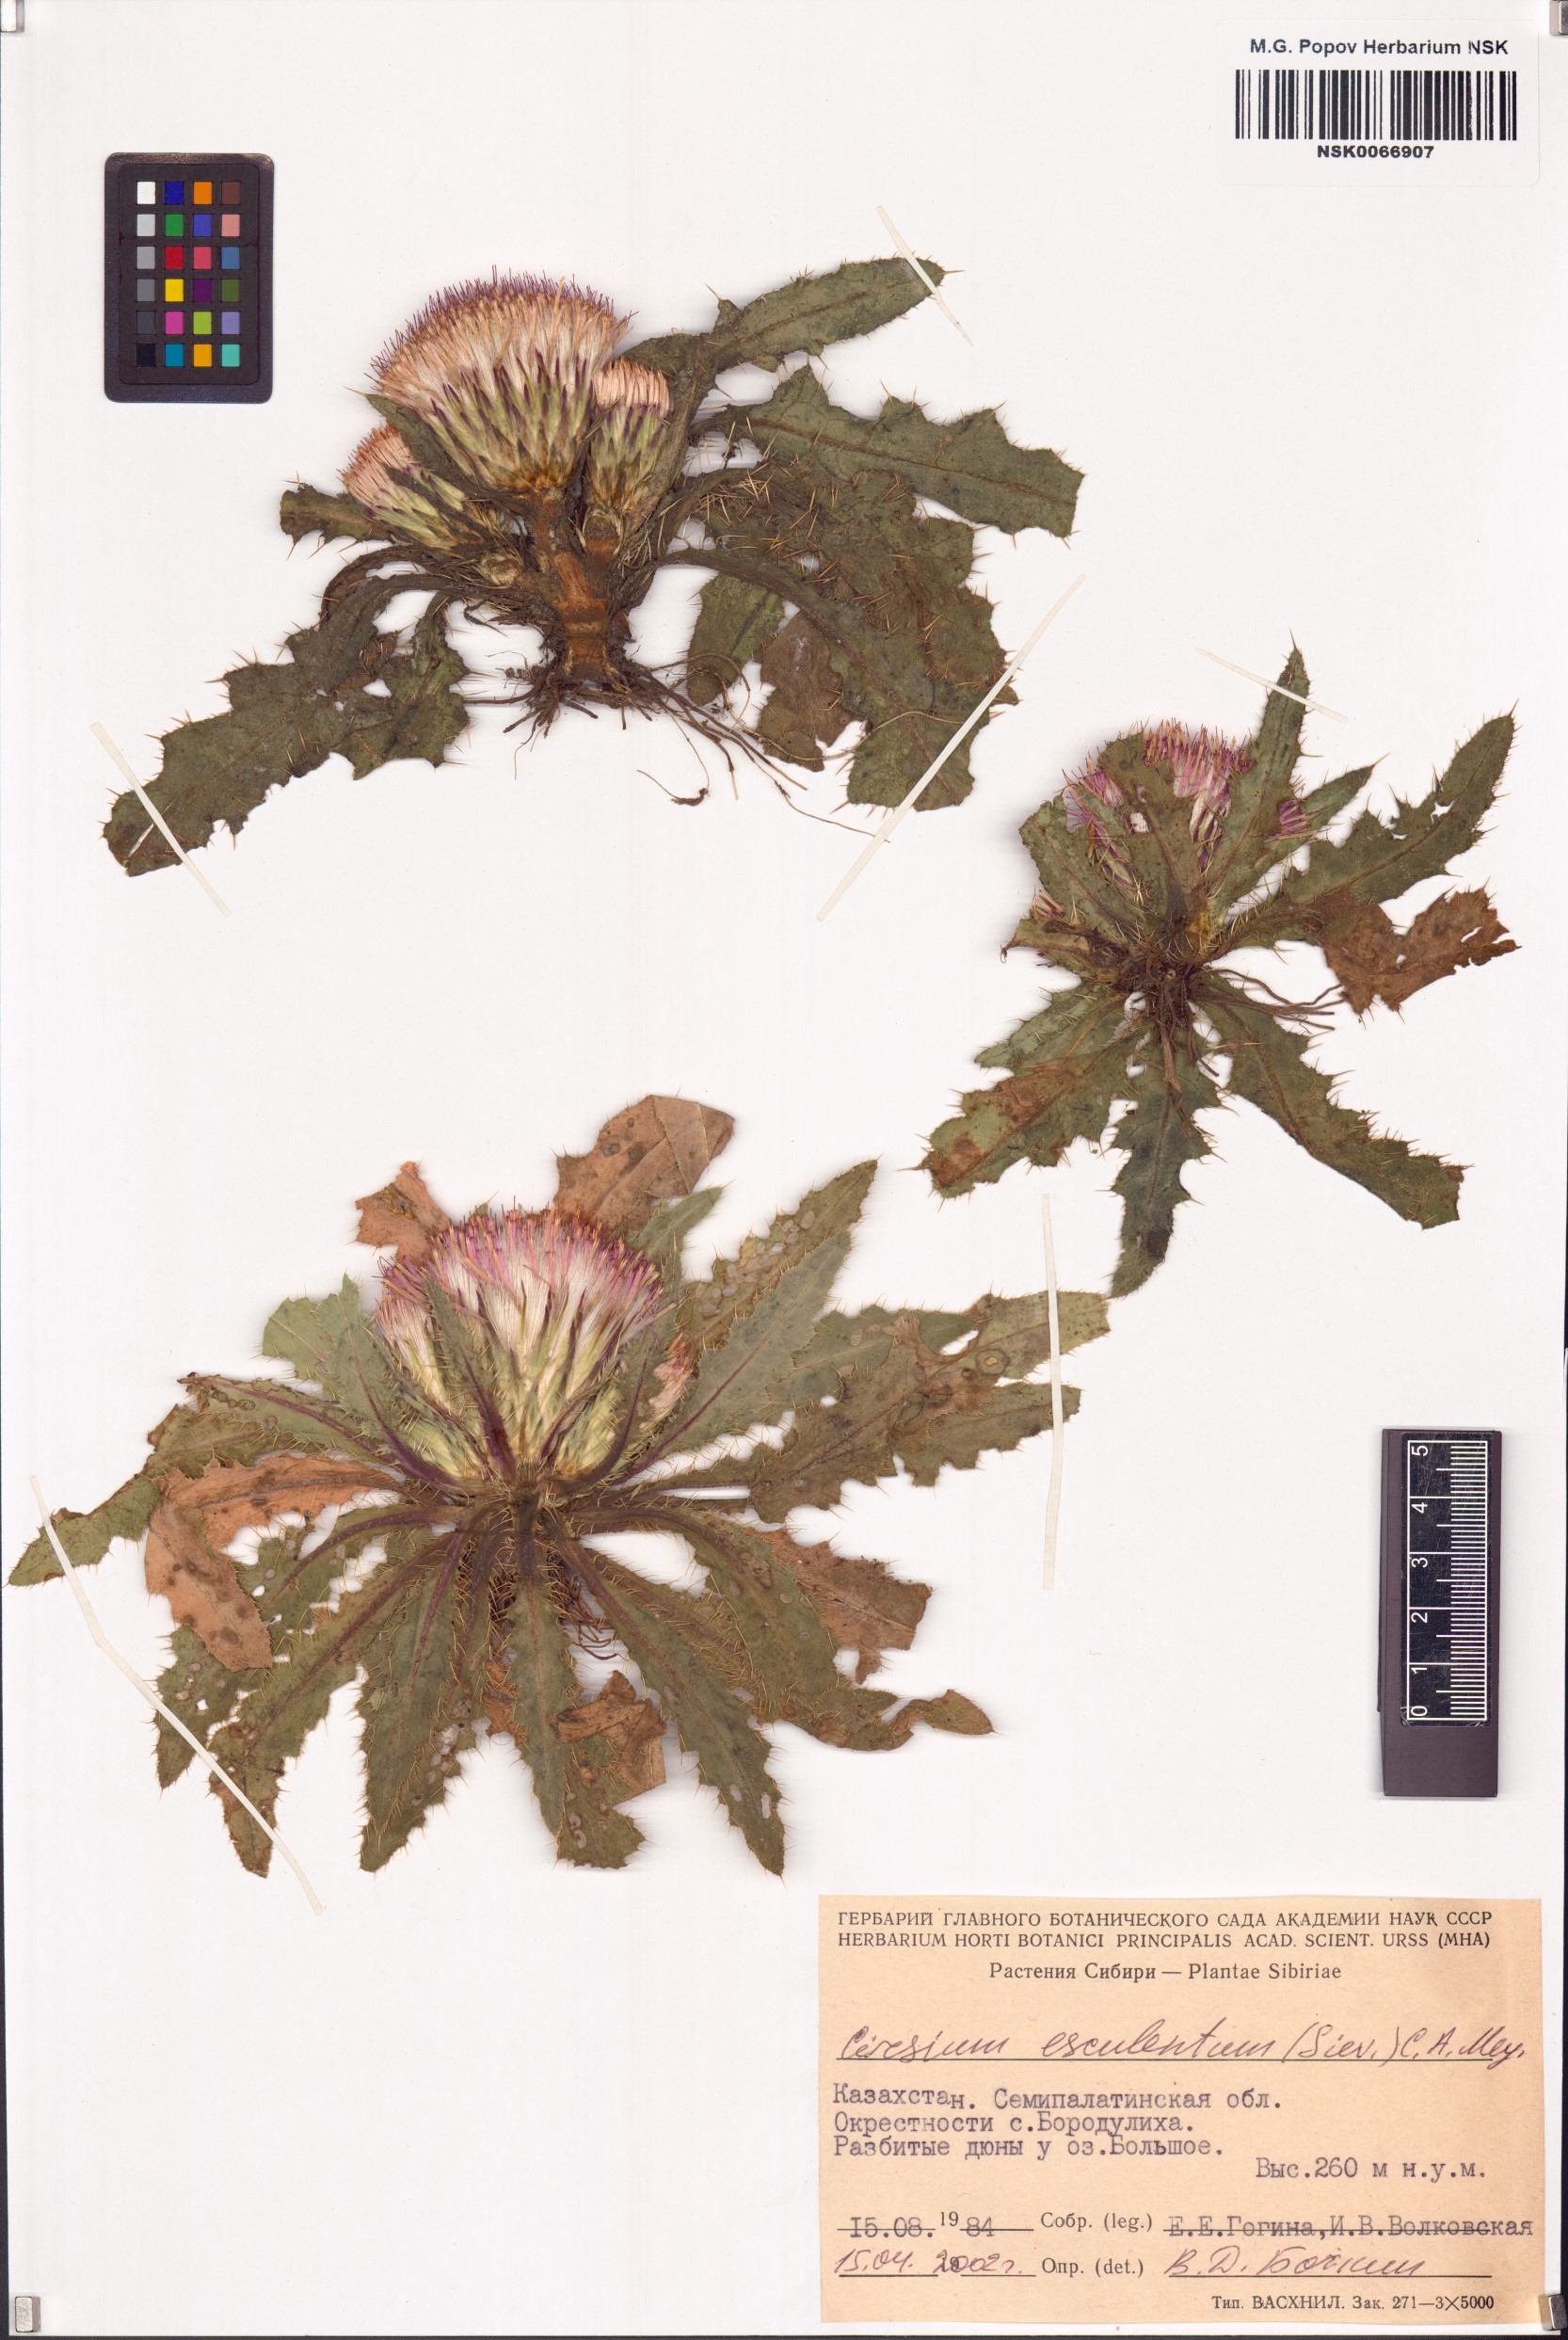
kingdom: Plantae
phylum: Tracheophyta
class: Magnoliopsida
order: Asterales
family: Asteraceae
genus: Cirsium
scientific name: Cirsium esculentum
